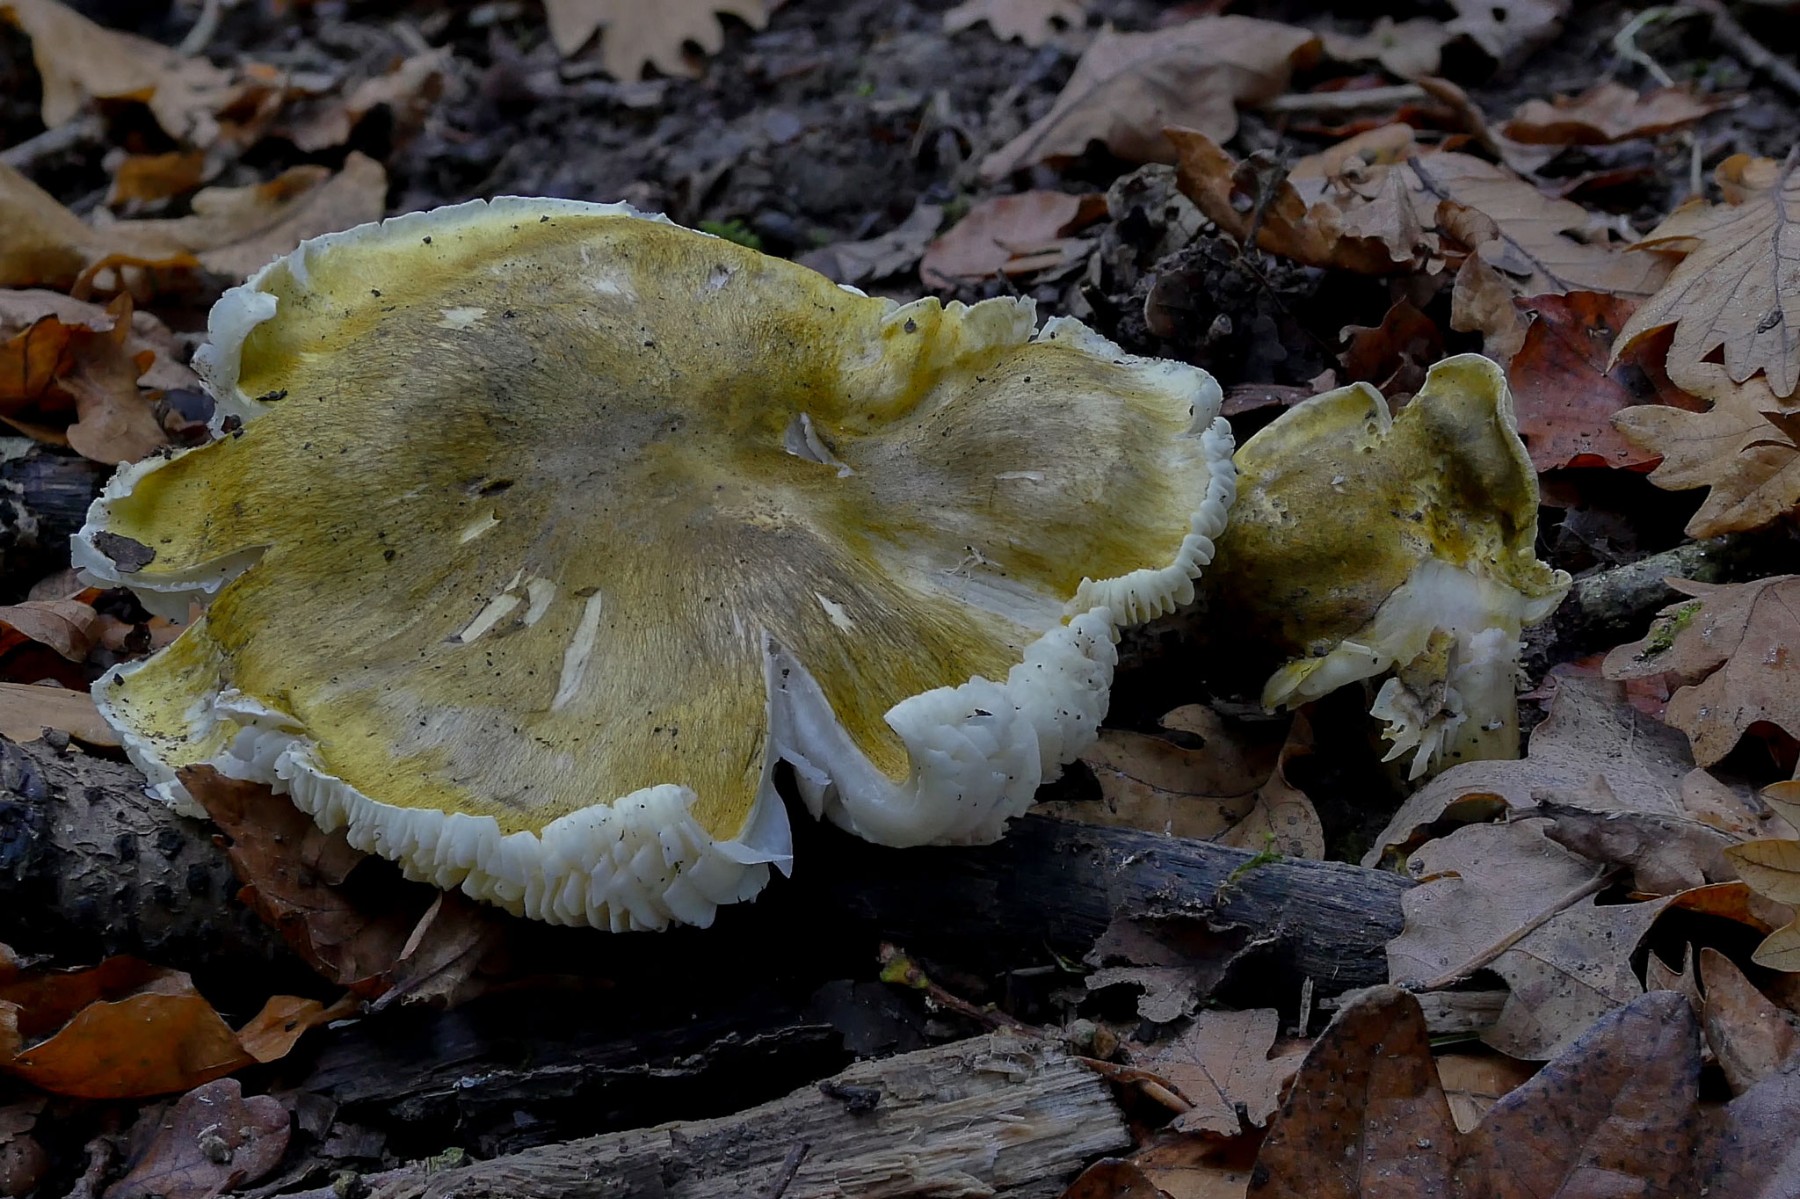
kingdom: Fungi
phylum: Basidiomycota
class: Agaricomycetes
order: Agaricales
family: Tricholomataceae
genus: Tricholoma
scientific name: Tricholoma sejunctum
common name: grøngul ridderhat
